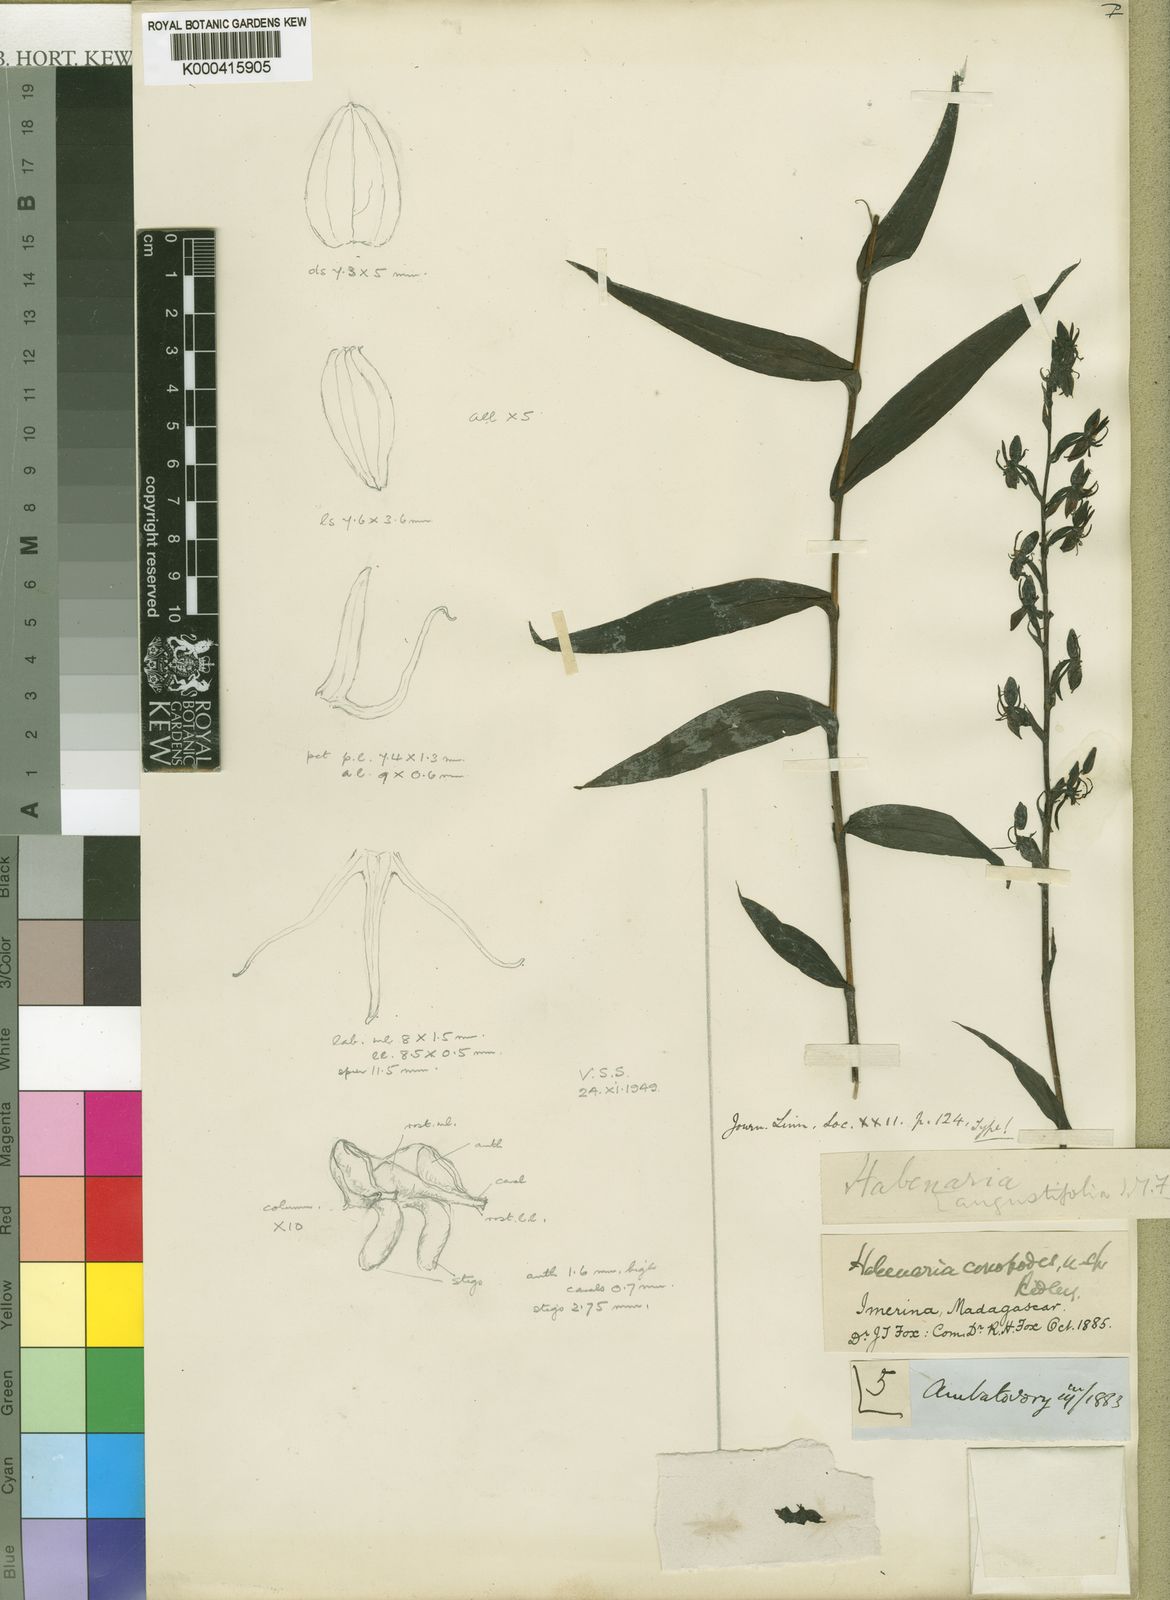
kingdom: Plantae
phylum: Tracheophyta
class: Liliopsida
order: Asparagales
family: Orchidaceae
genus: Habenaria
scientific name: Habenaria conopodes
